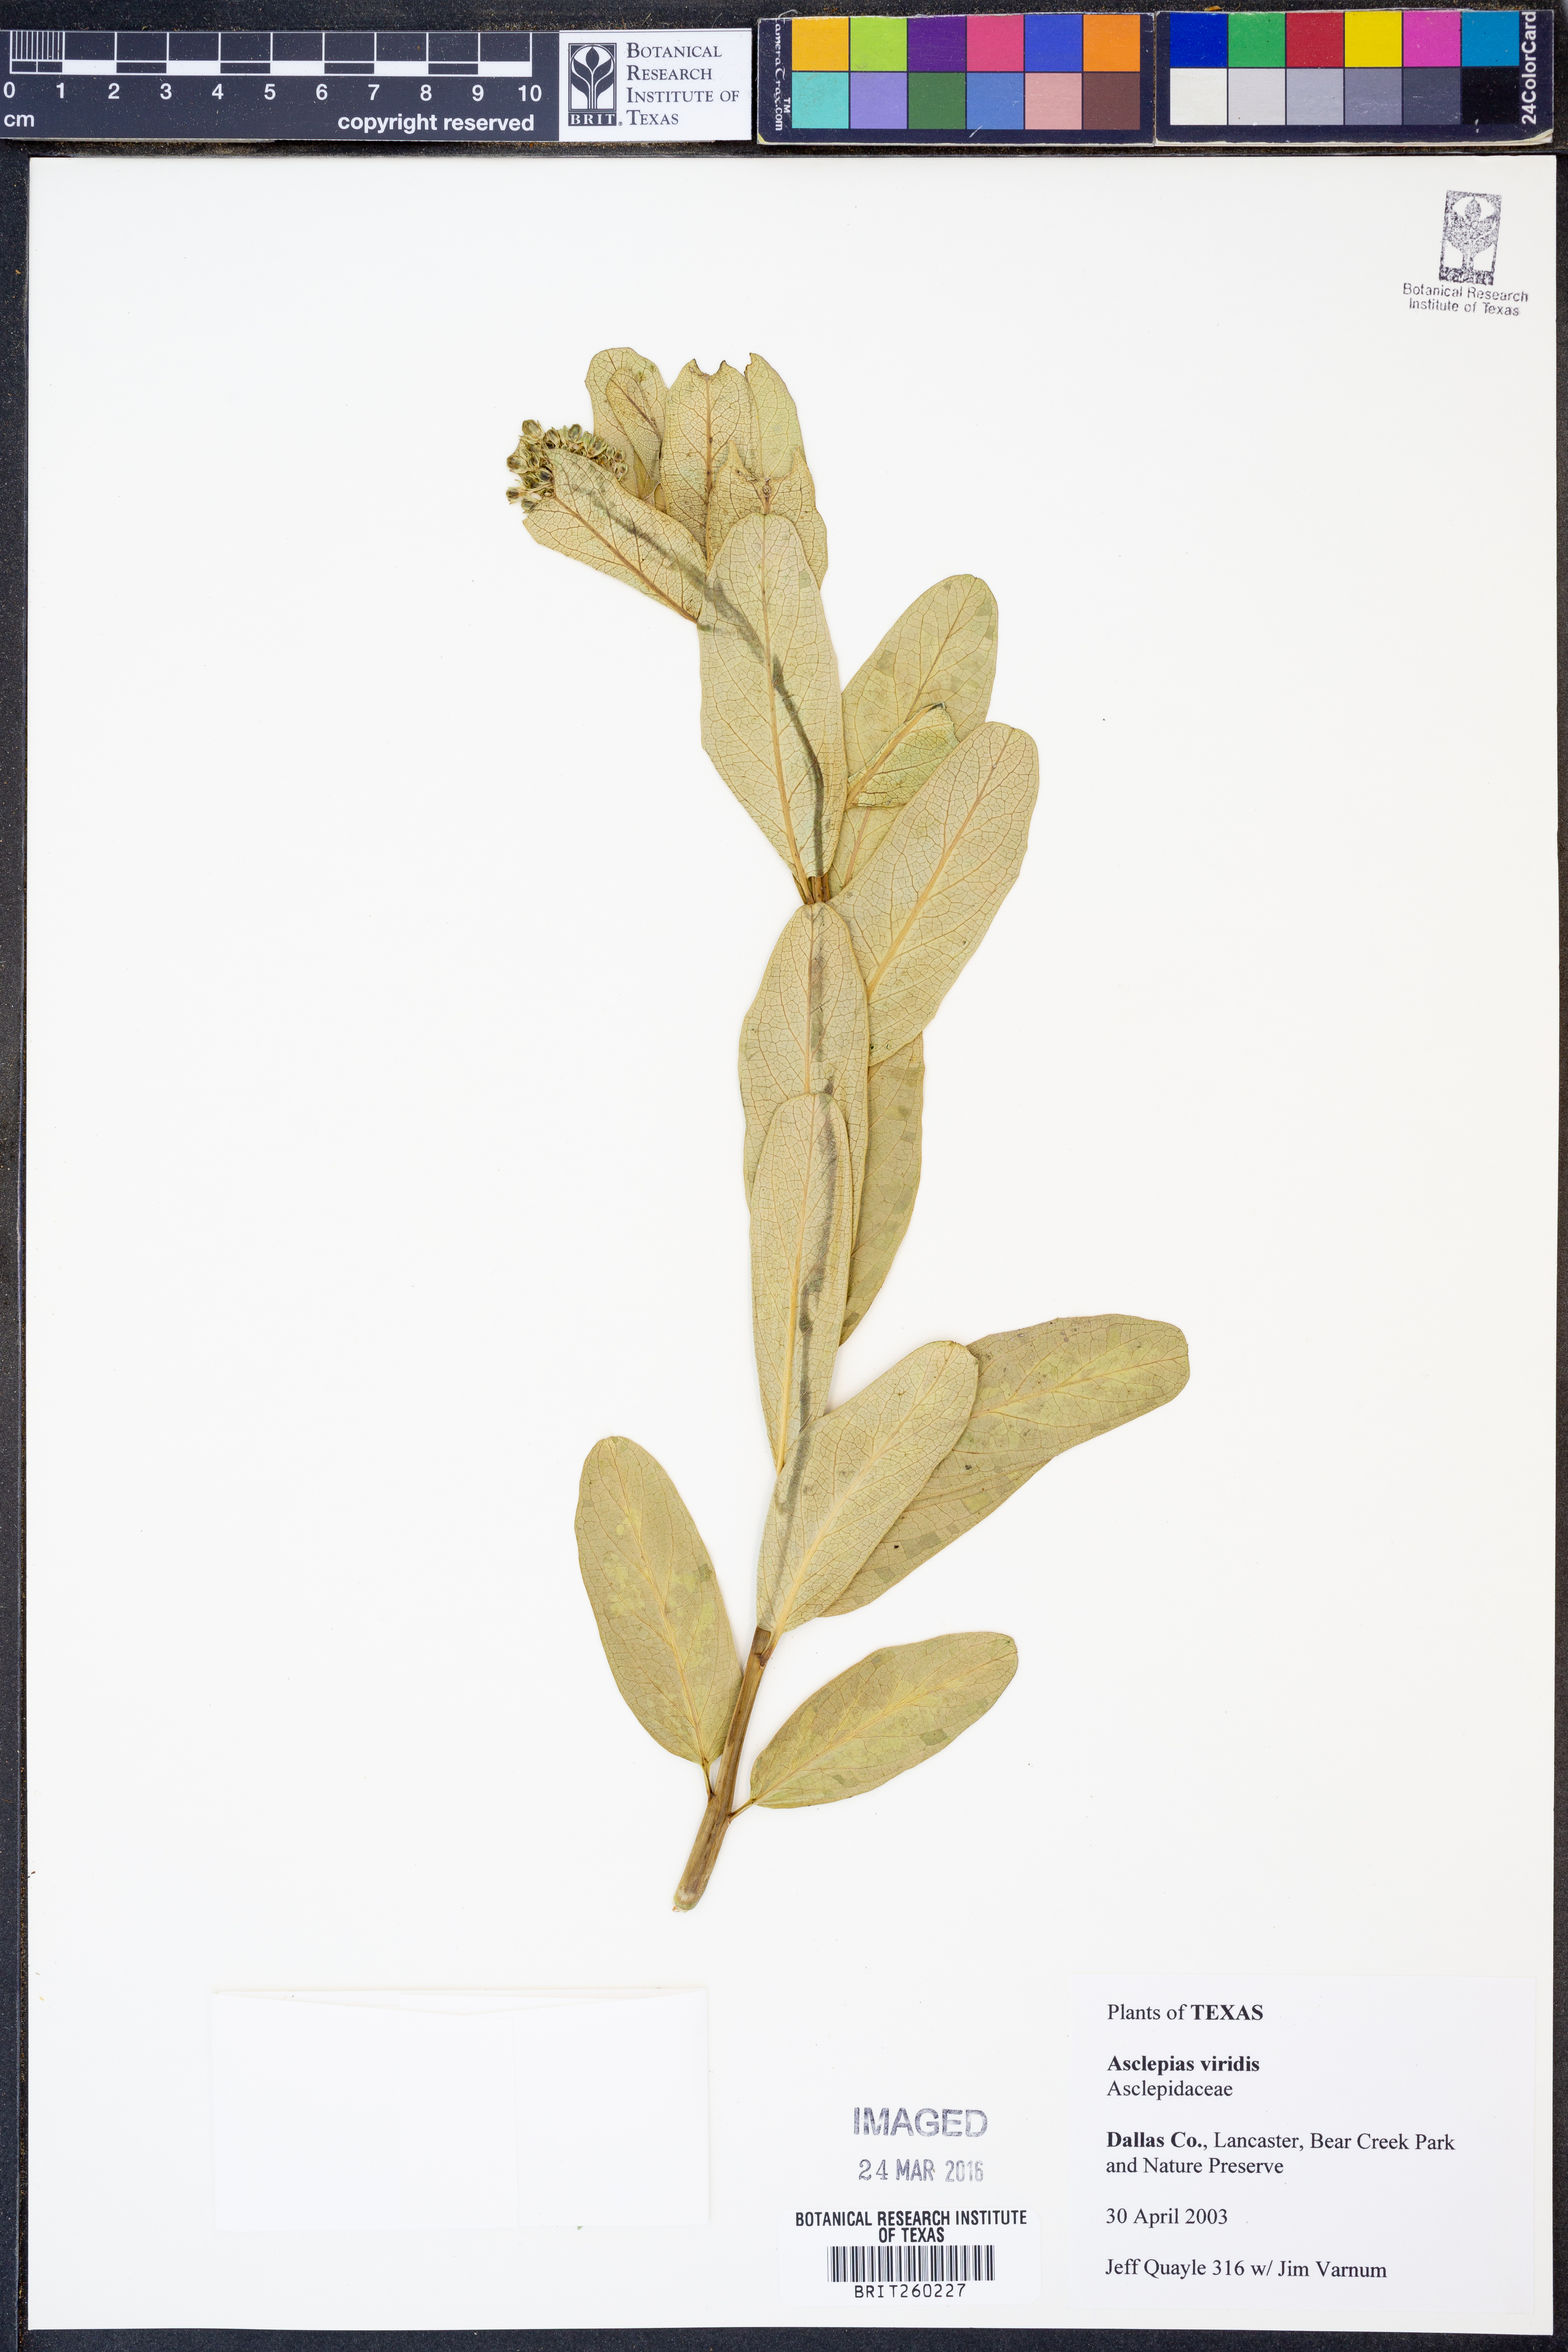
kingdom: Plantae
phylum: Tracheophyta
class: Magnoliopsida
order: Gentianales
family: Apocynaceae
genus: Asclepias
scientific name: Asclepias viridis
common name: Antelope-horns
